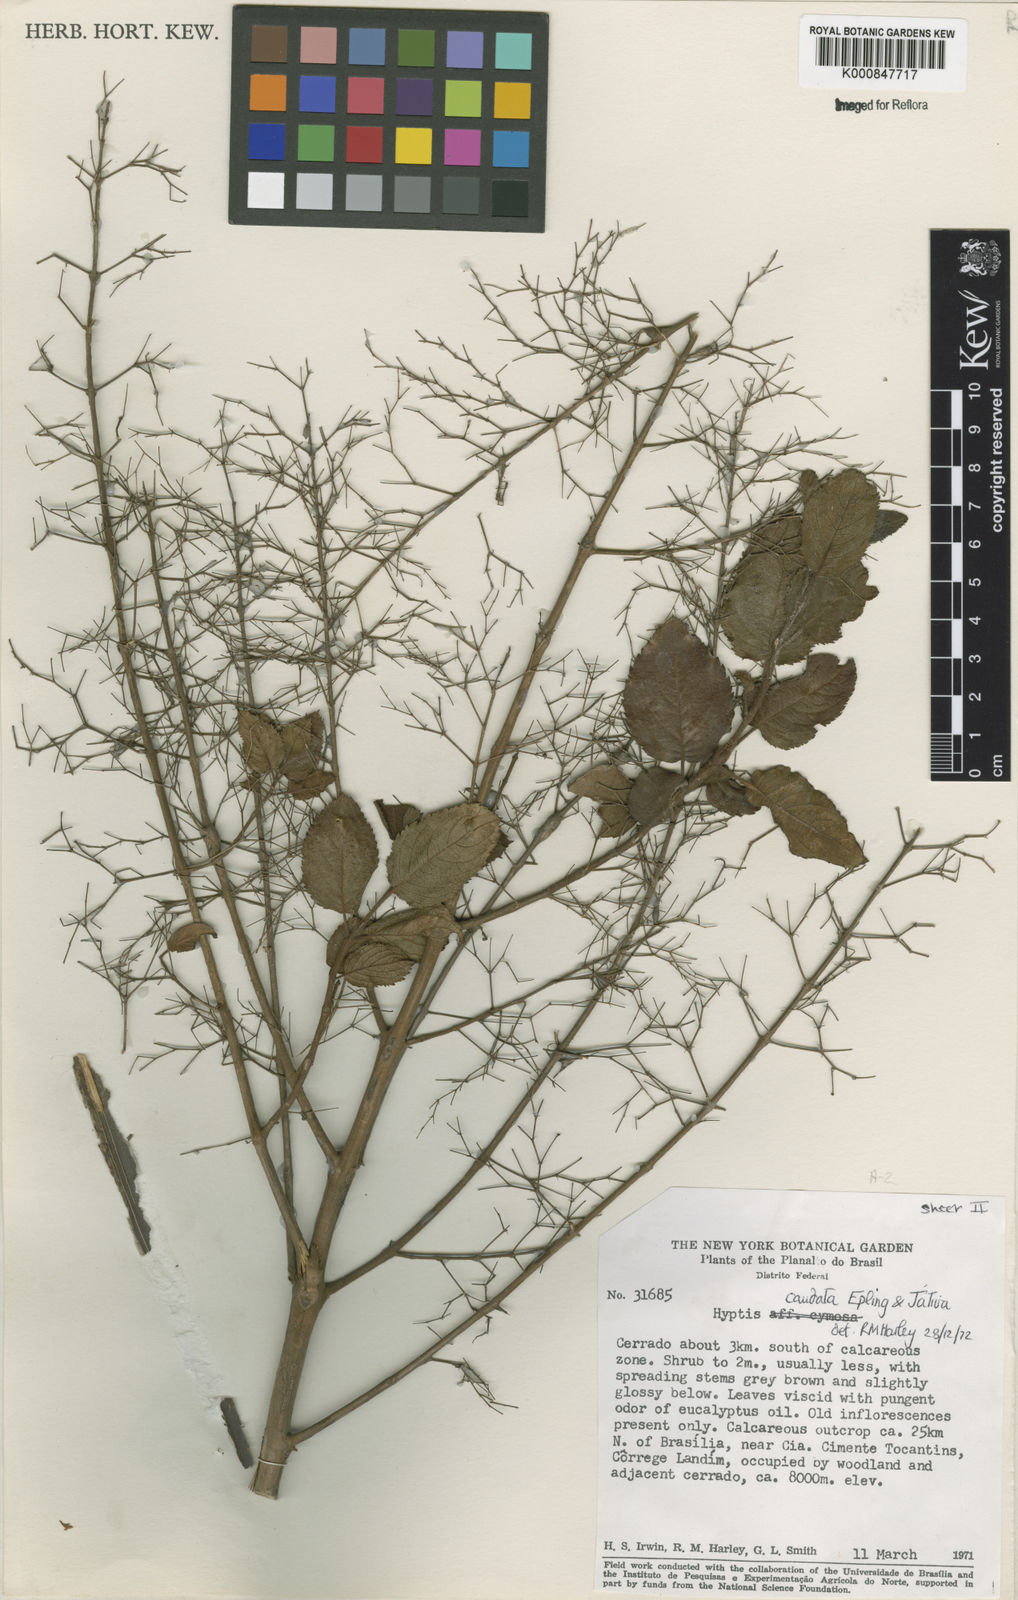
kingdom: Plantae
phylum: Tracheophyta
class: Magnoliopsida
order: Lamiales
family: Lamiaceae
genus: Hyptidendron
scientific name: Hyptidendron
